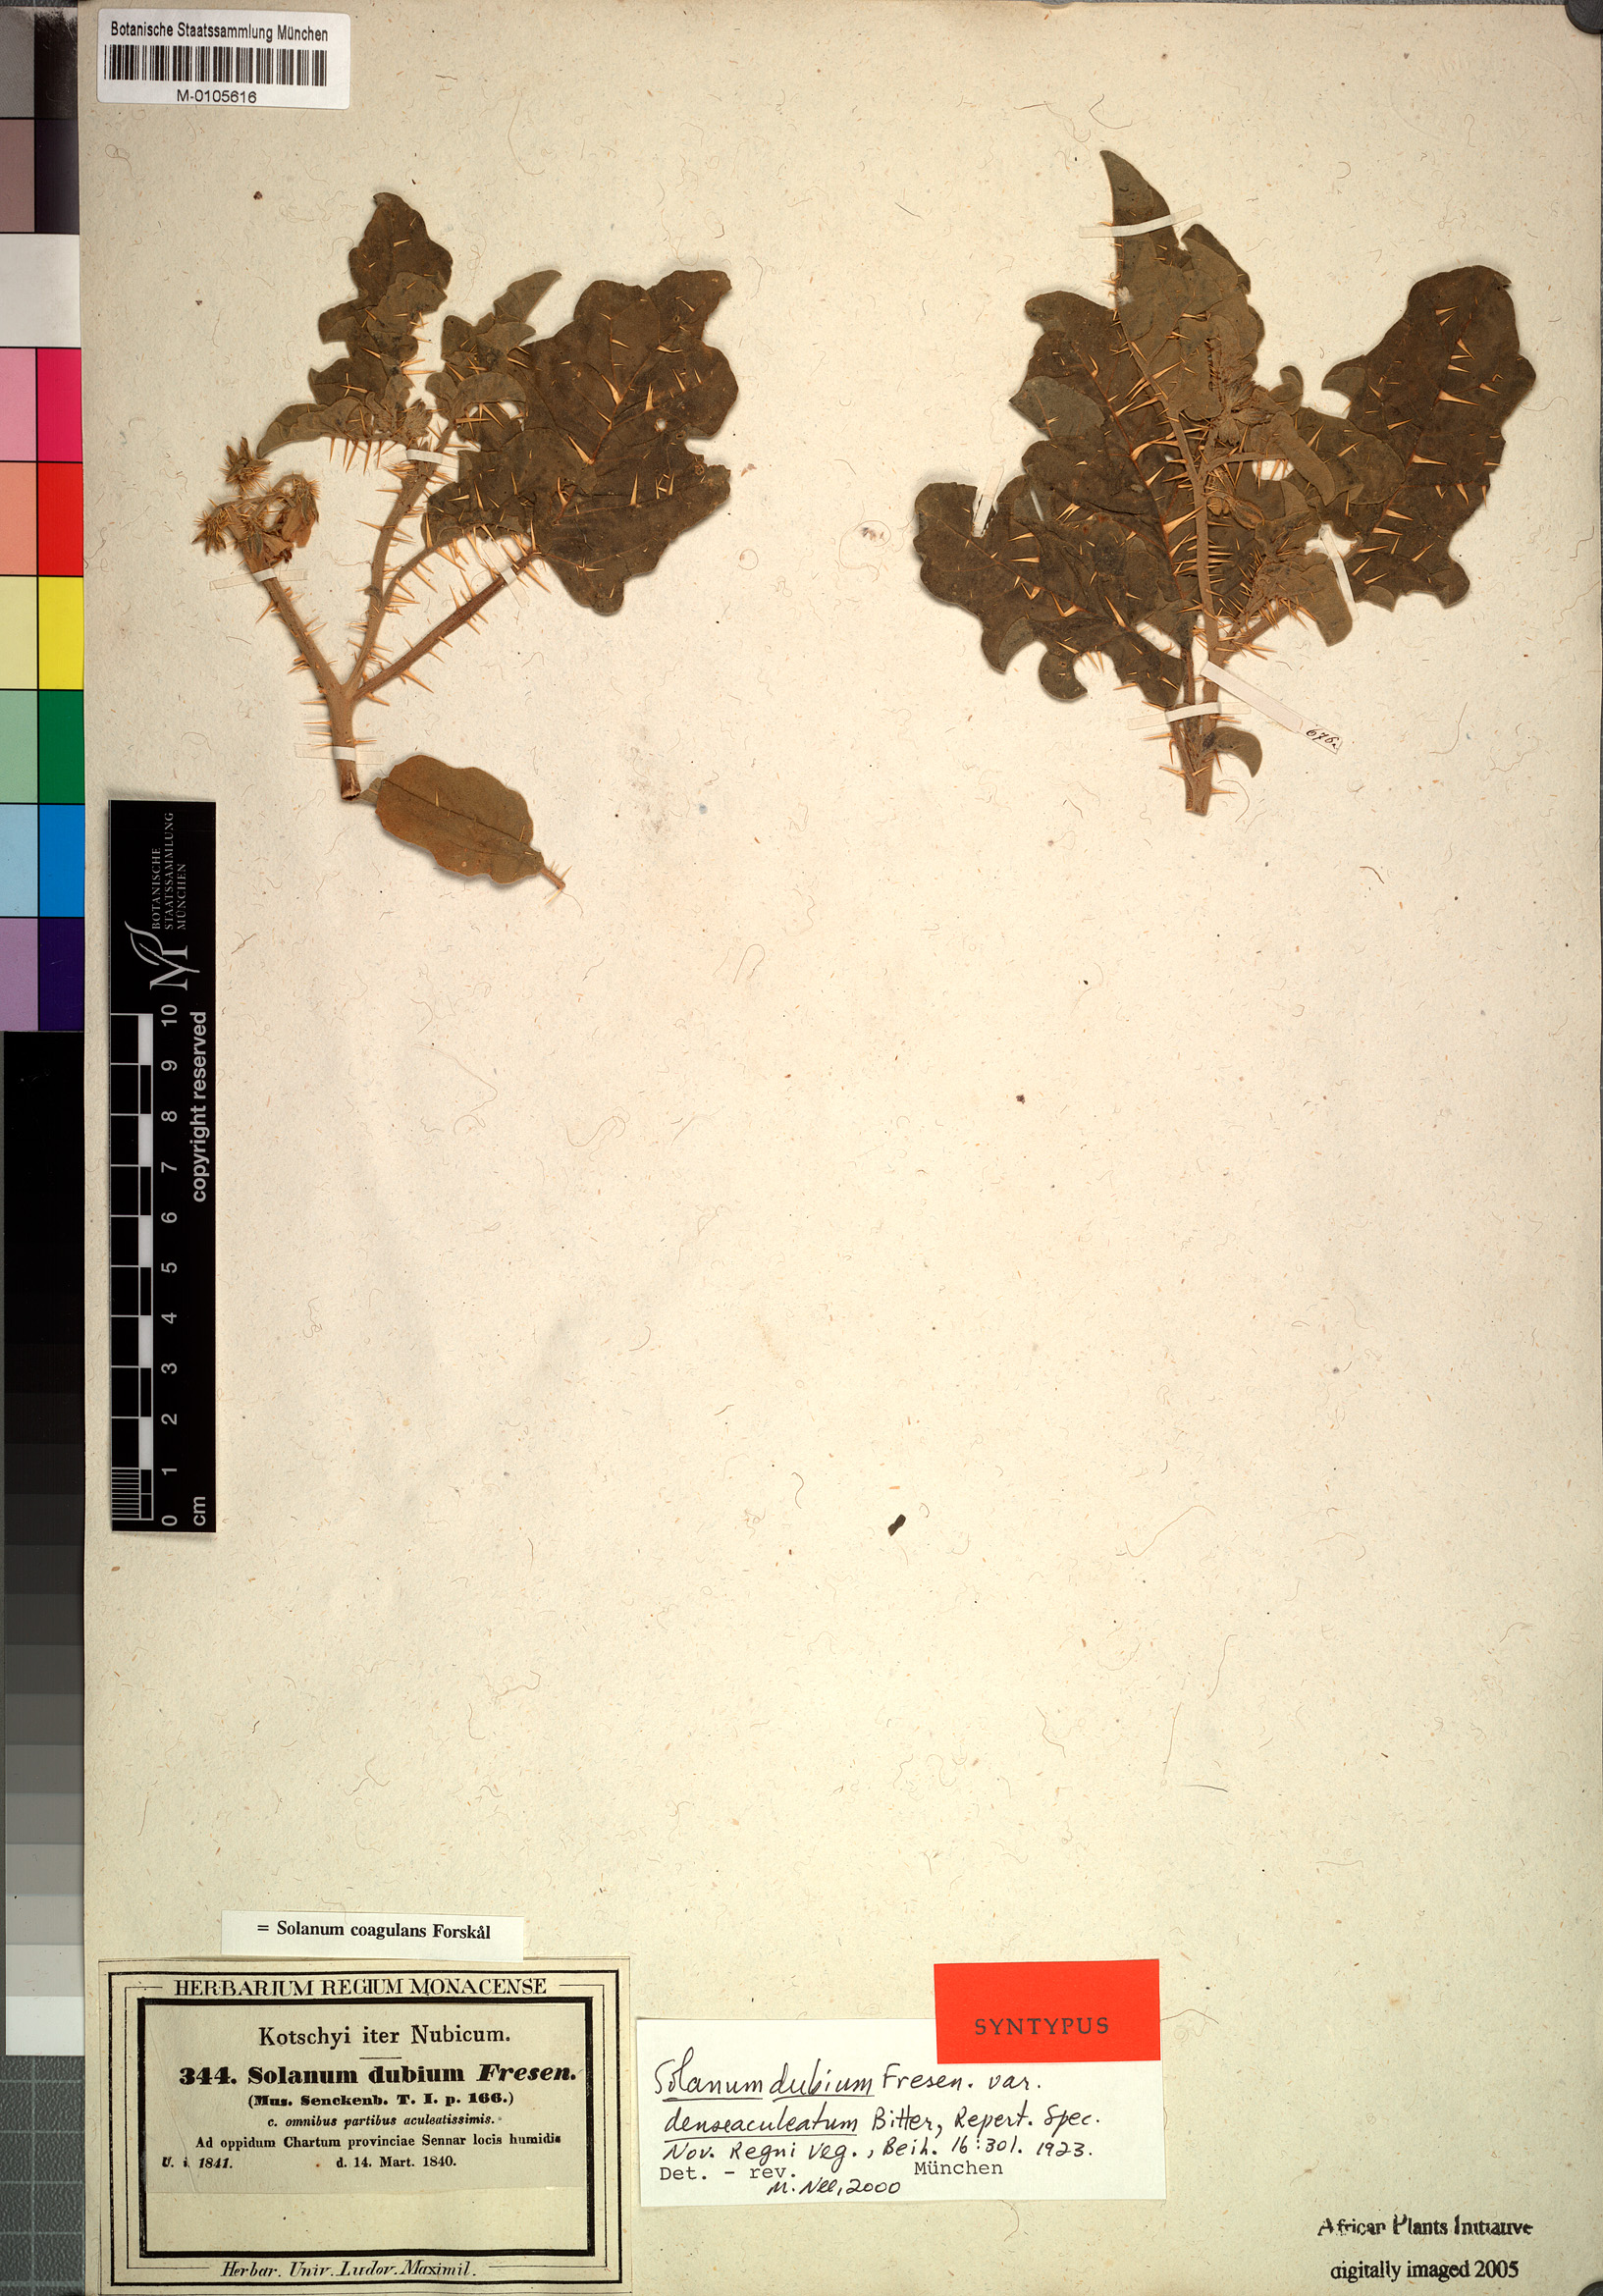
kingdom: Plantae
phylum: Tracheophyta
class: Magnoliopsida
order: Solanales
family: Solanaceae
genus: Solanum
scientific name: Solanum coagulans
